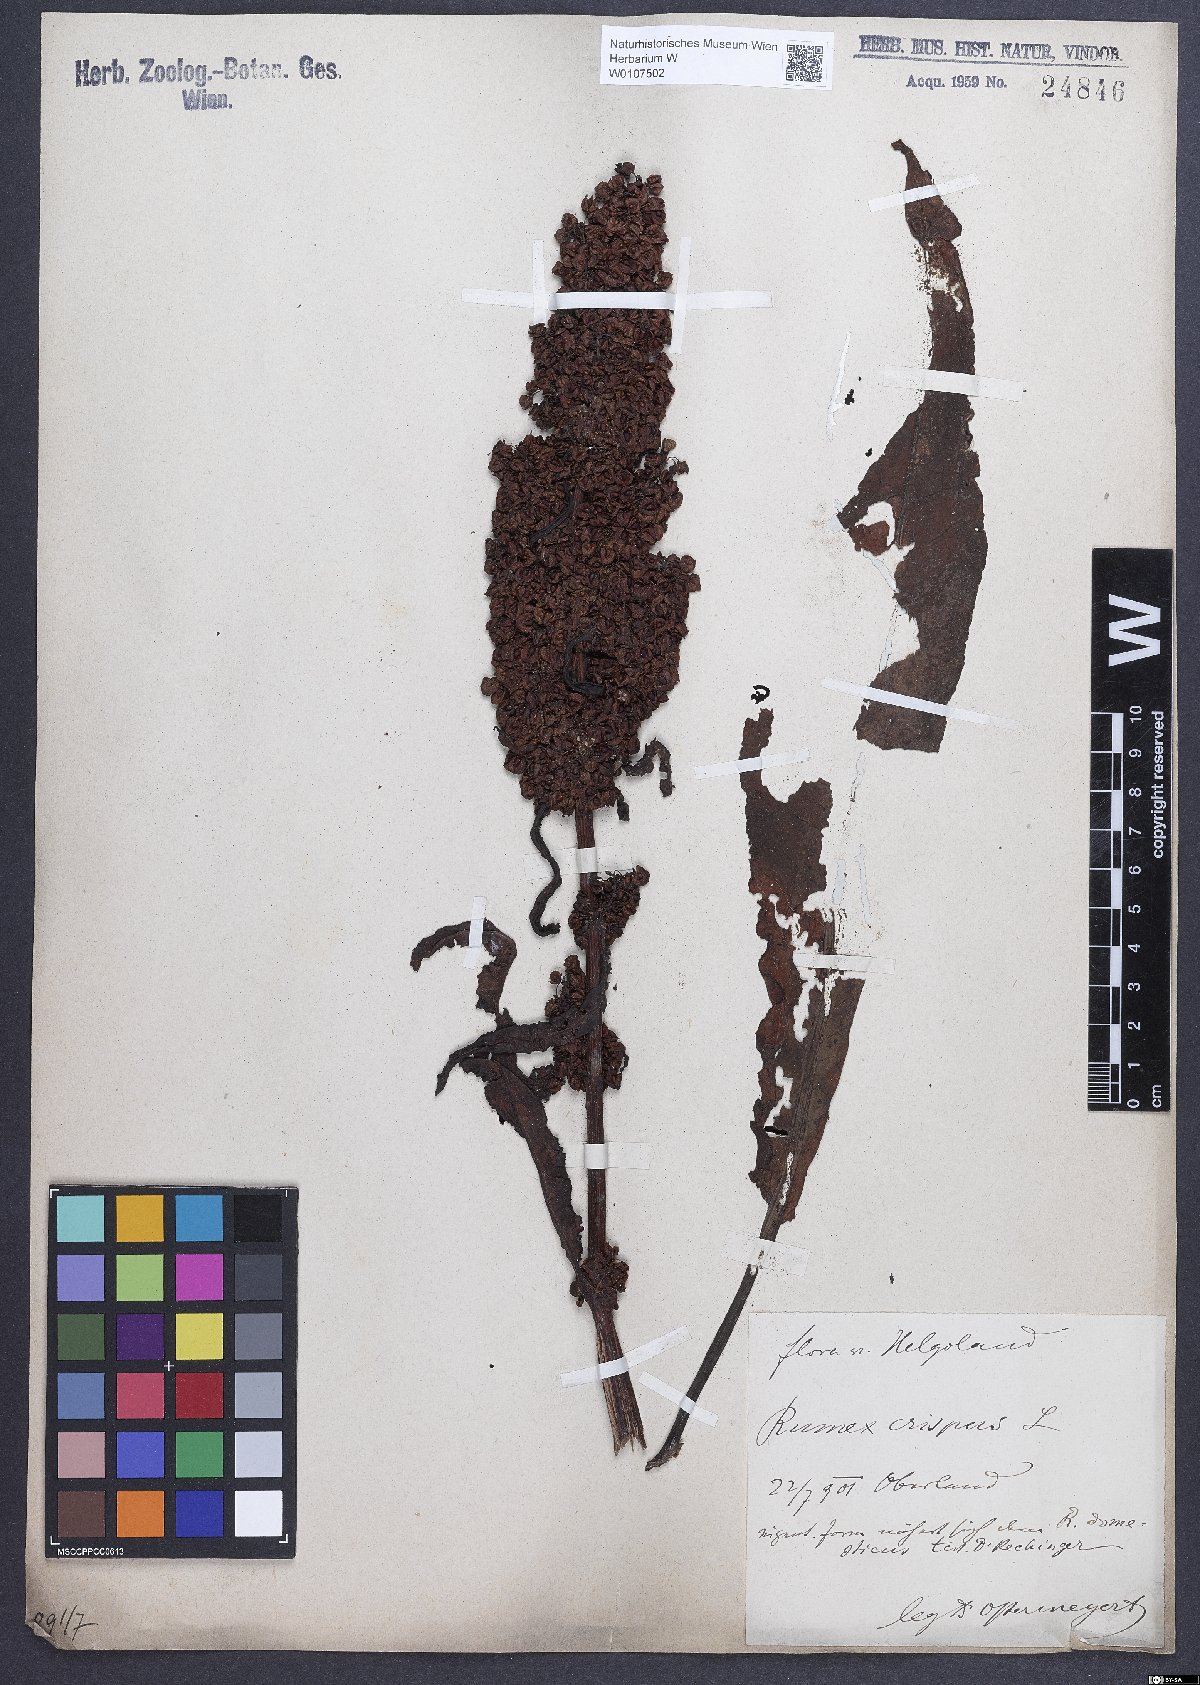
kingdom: Plantae
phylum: Tracheophyta
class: Magnoliopsida
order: Caryophyllales
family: Polygonaceae
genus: Rumex
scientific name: Rumex crispus
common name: Curled dock
